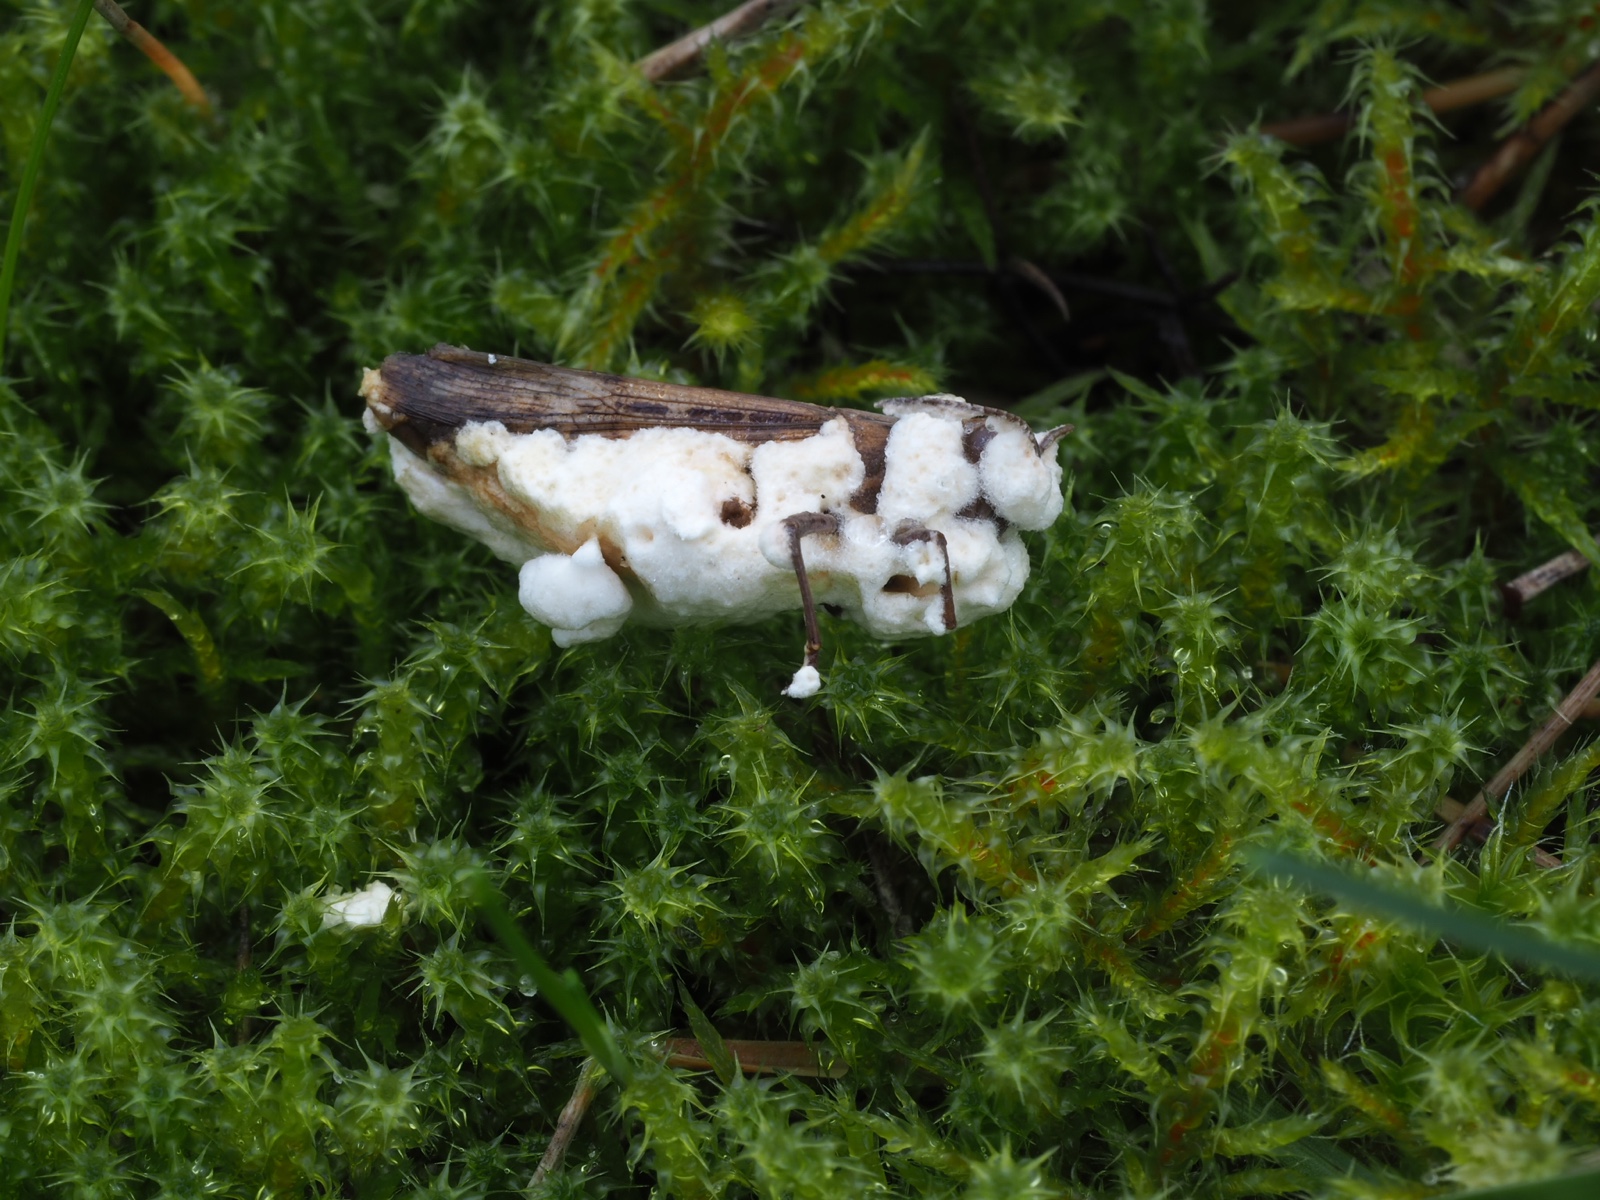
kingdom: Fungi
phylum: Ascomycota
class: Sordariomycetes
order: Hypocreales
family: Cordycipitaceae
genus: Beauveria
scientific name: Beauveria bassiana
